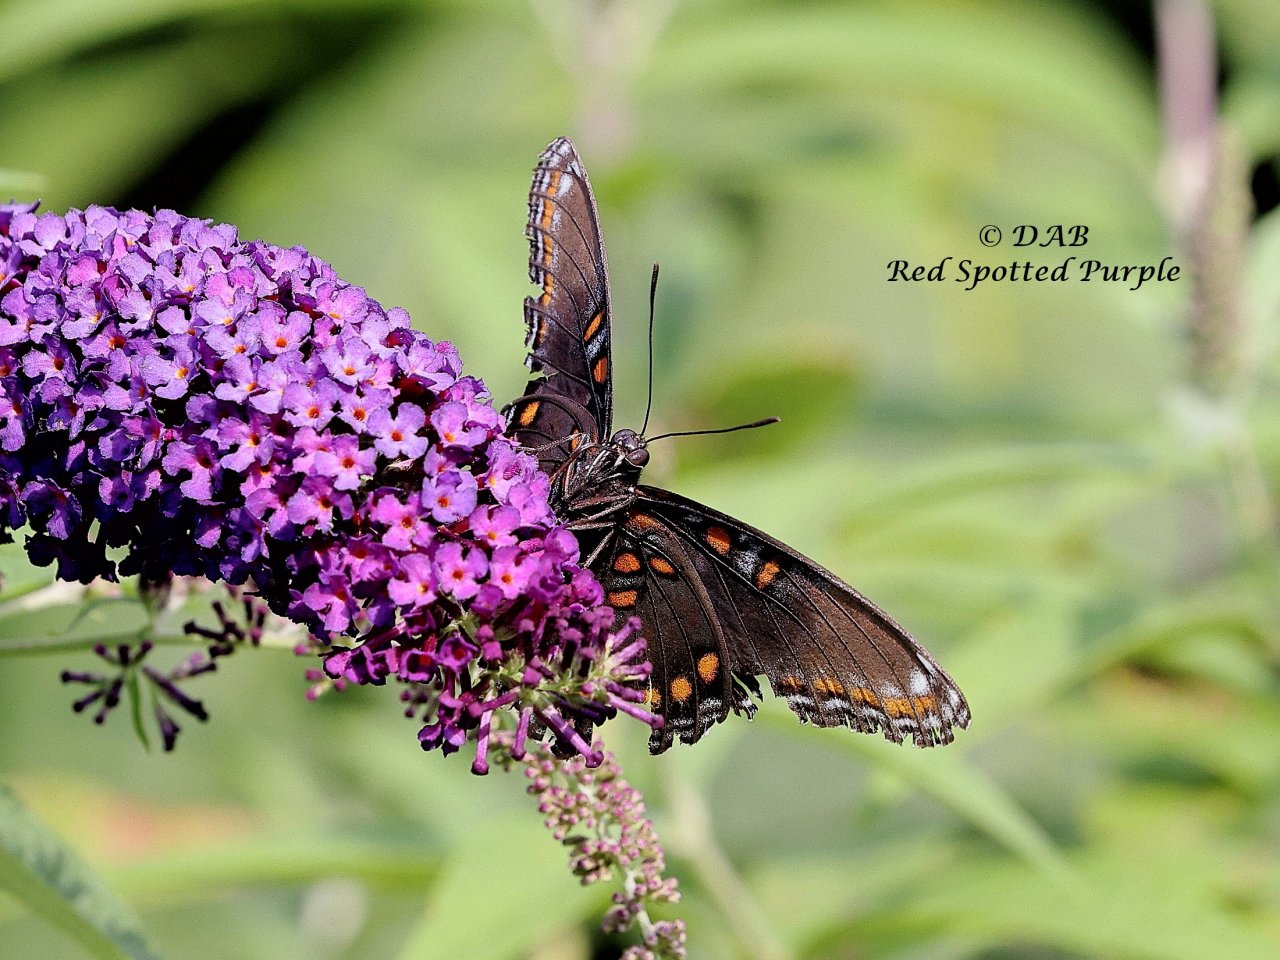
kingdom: Animalia
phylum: Arthropoda
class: Insecta
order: Lepidoptera
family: Nymphalidae
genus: Limenitis
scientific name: Limenitis arthemis
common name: Red-spotted Admiral
